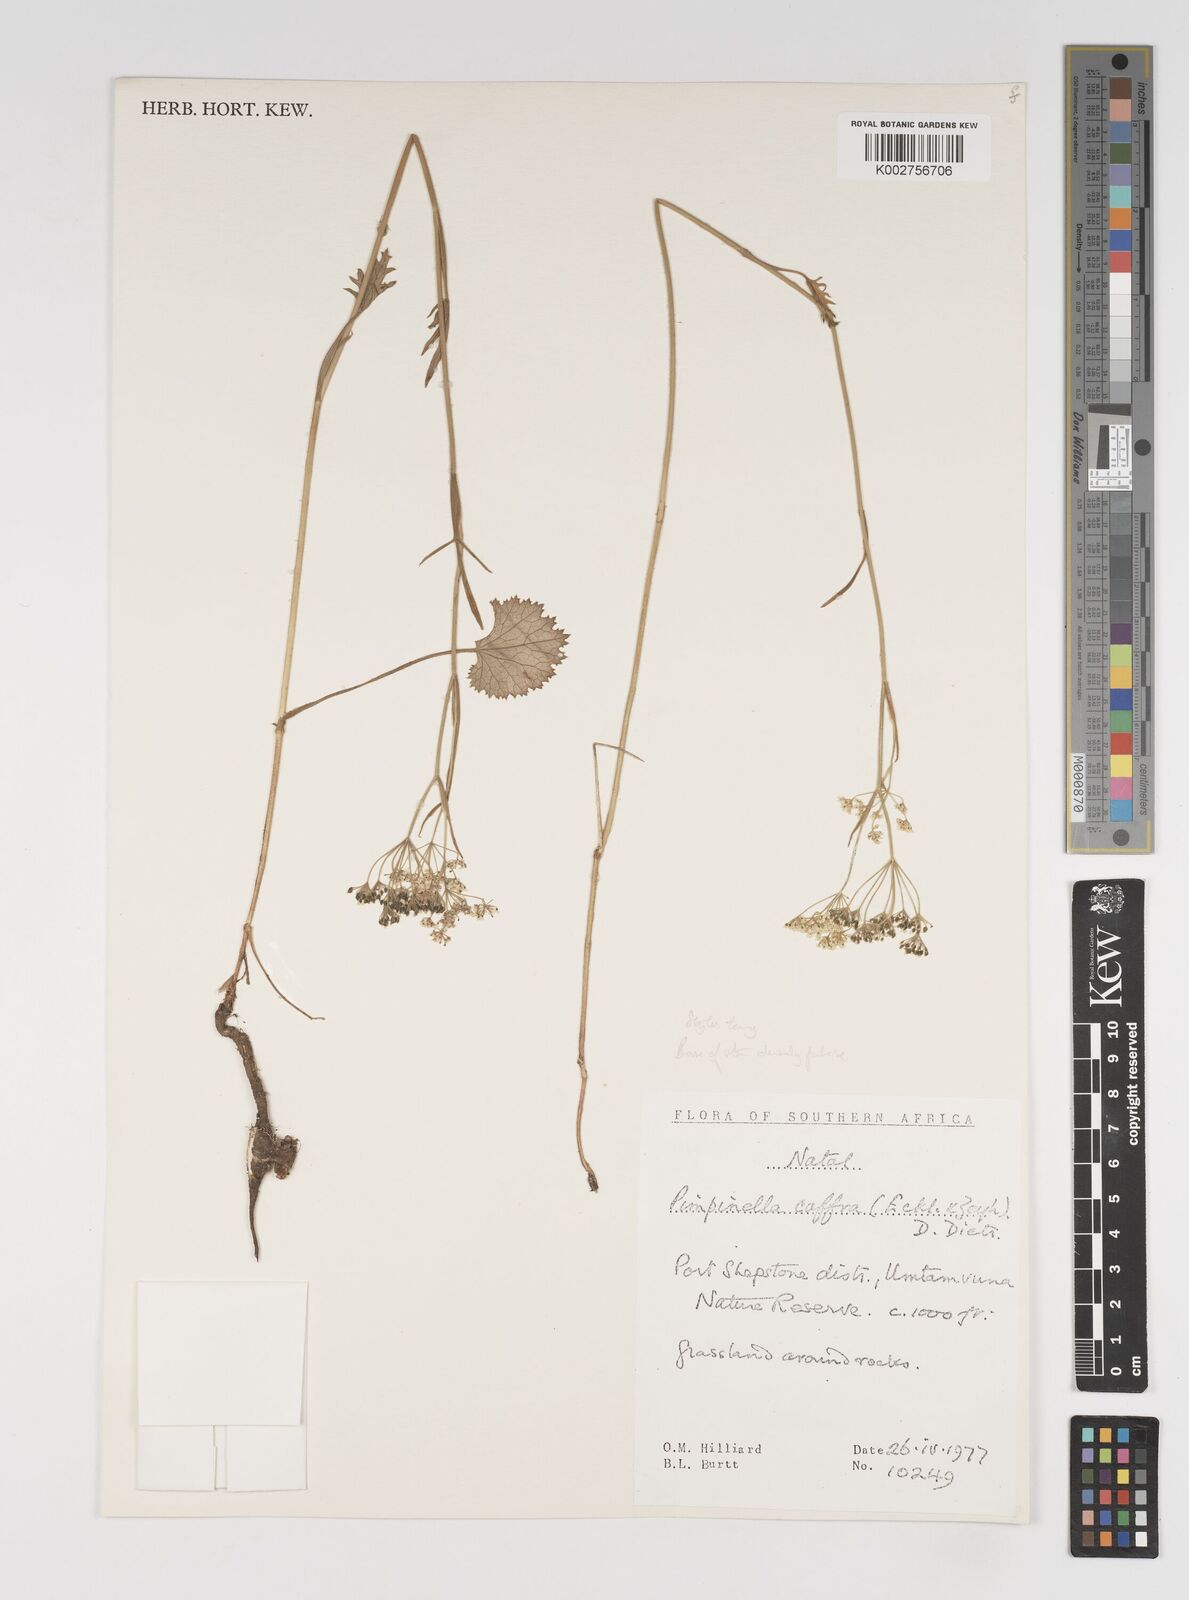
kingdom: Plantae
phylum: Tracheophyta
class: Magnoliopsida
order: Apiales
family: Apiaceae
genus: Pimpinella
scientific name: Pimpinella
